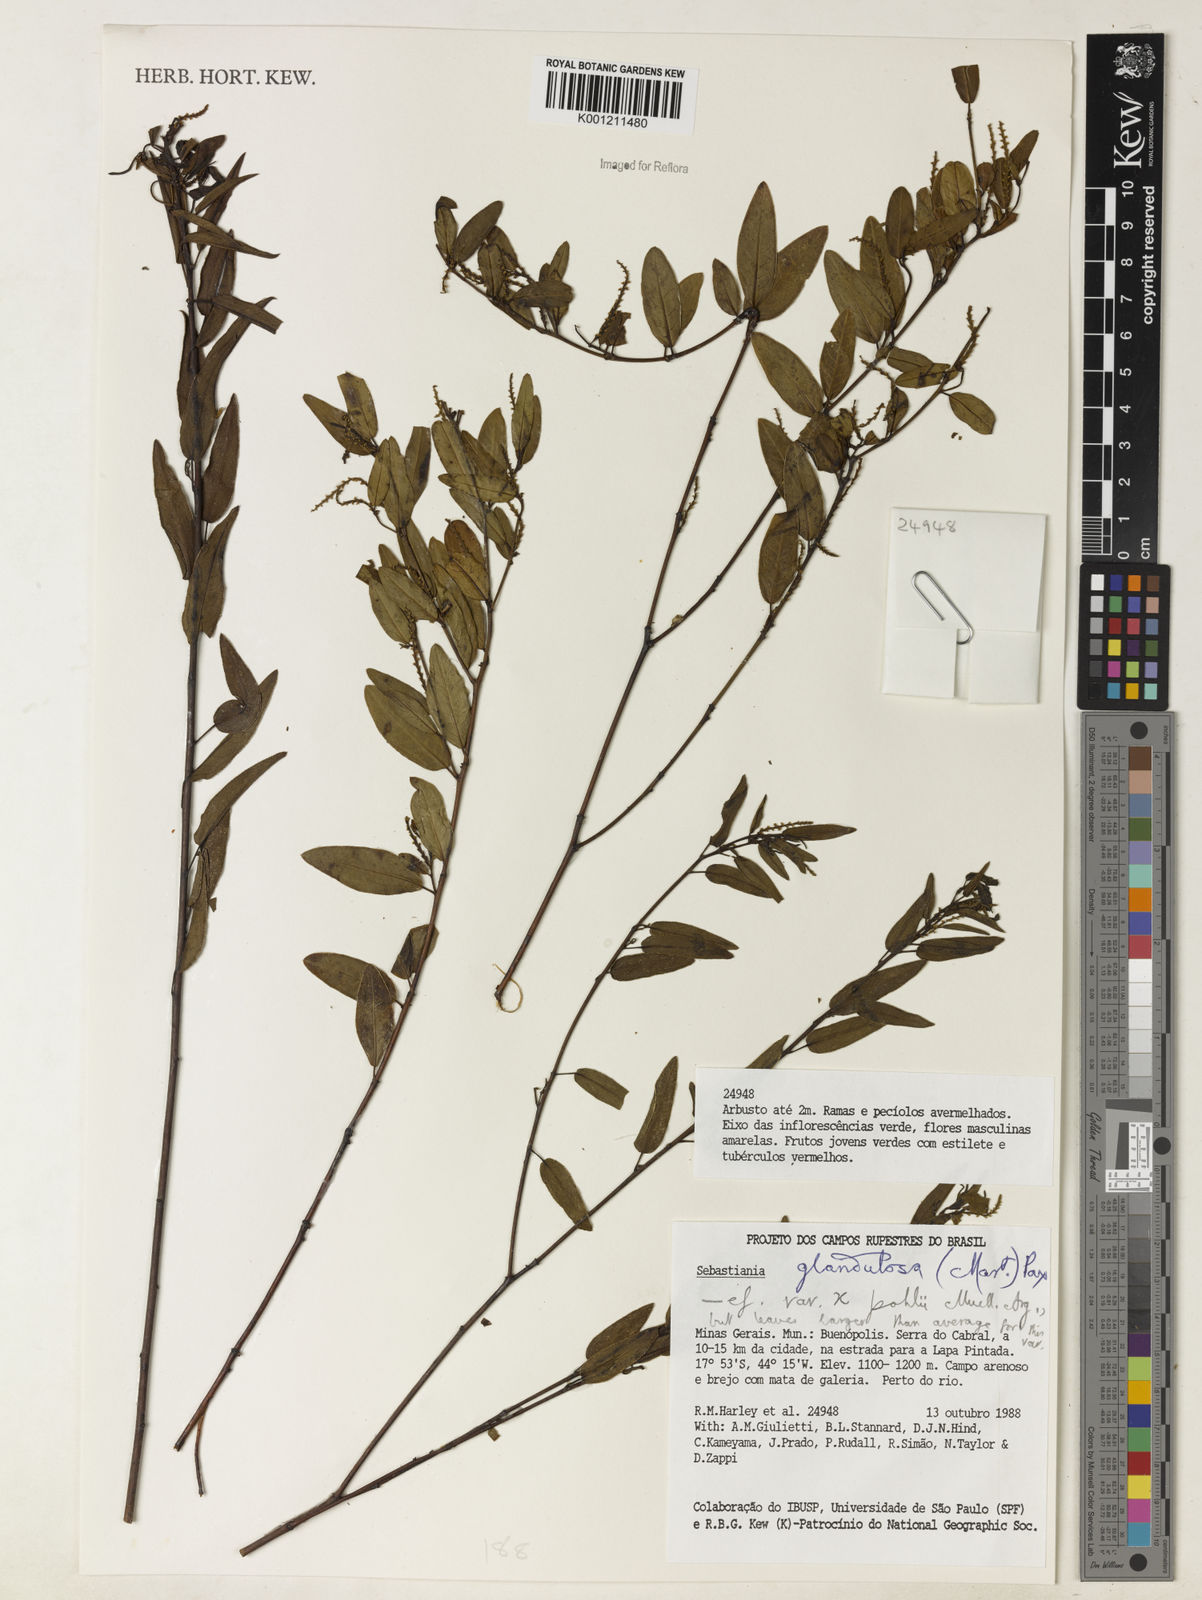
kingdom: Plantae
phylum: Tracheophyta
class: Magnoliopsida
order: Malpighiales
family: Euphorbiaceae
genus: Microstachys
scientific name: Microstachys glandulosa
